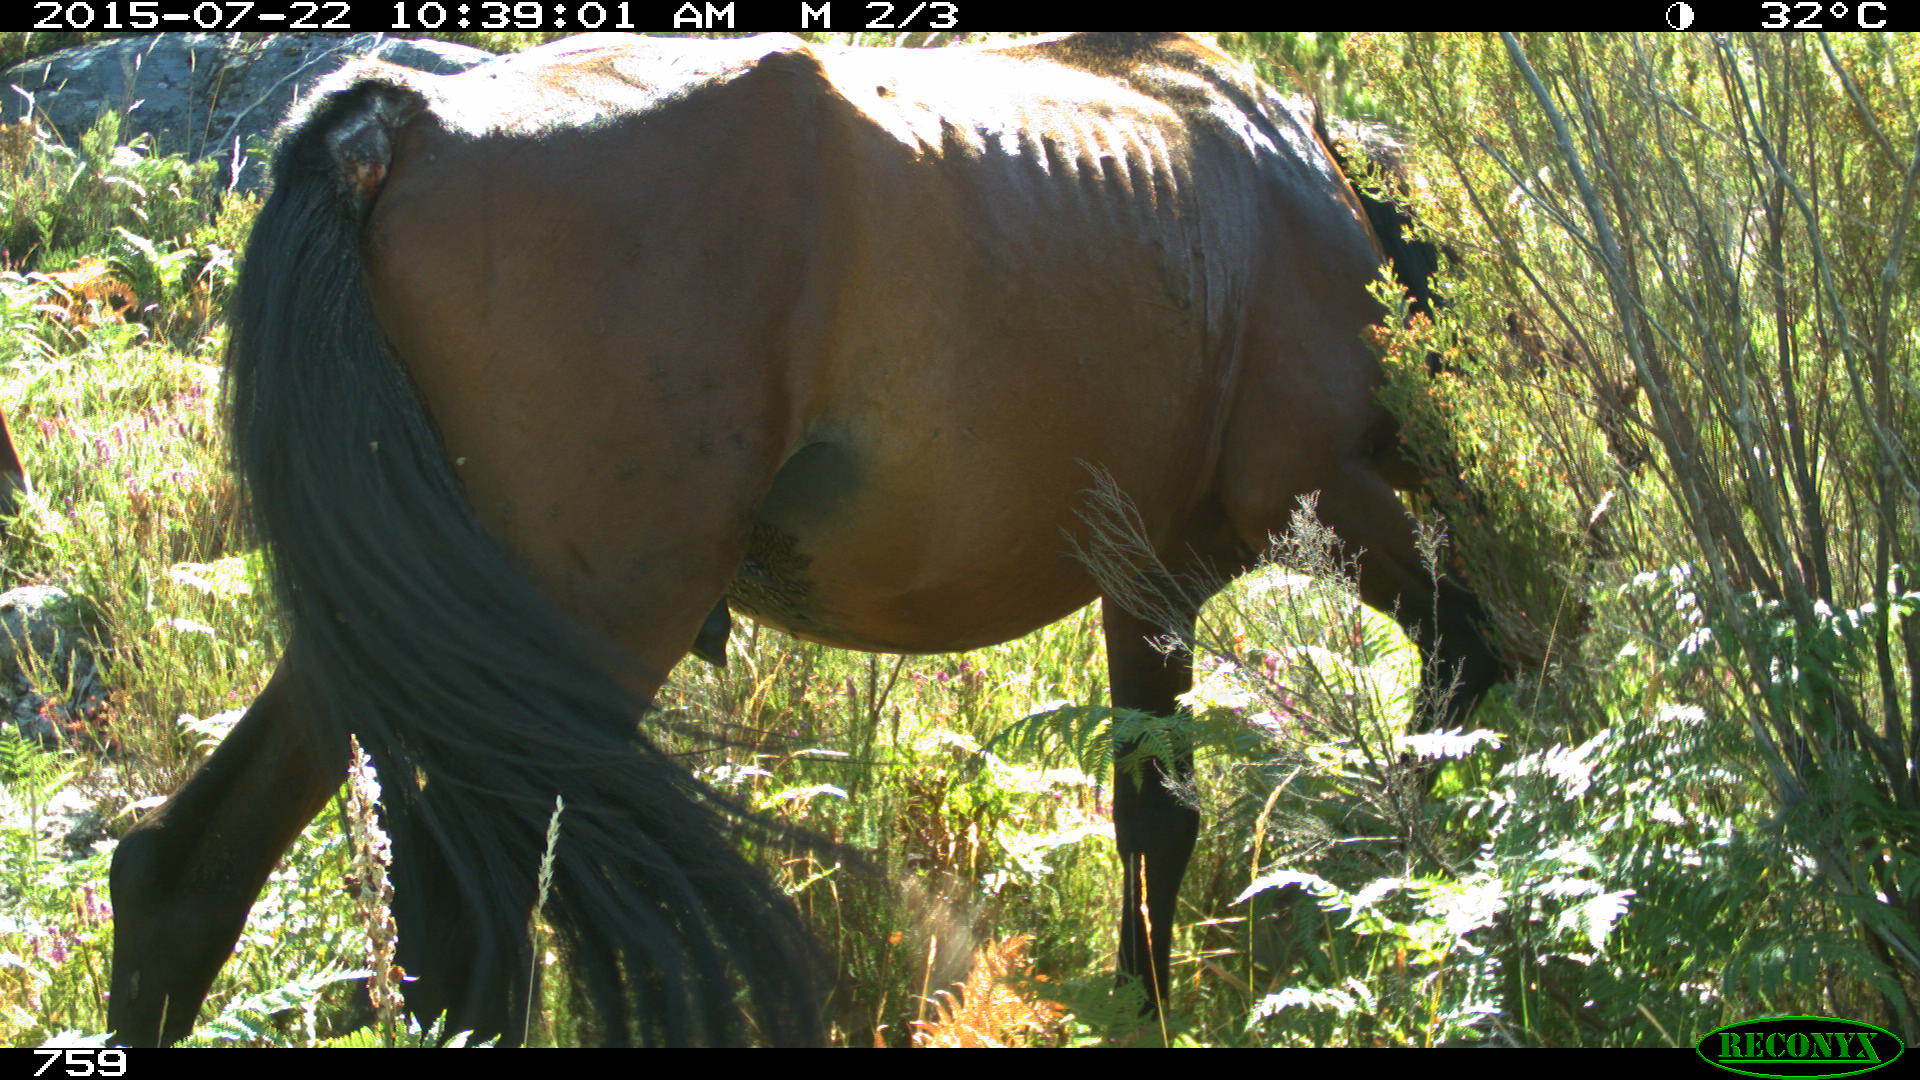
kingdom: Animalia
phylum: Chordata
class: Mammalia
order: Perissodactyla
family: Equidae
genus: Equus
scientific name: Equus caballus
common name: Horse
